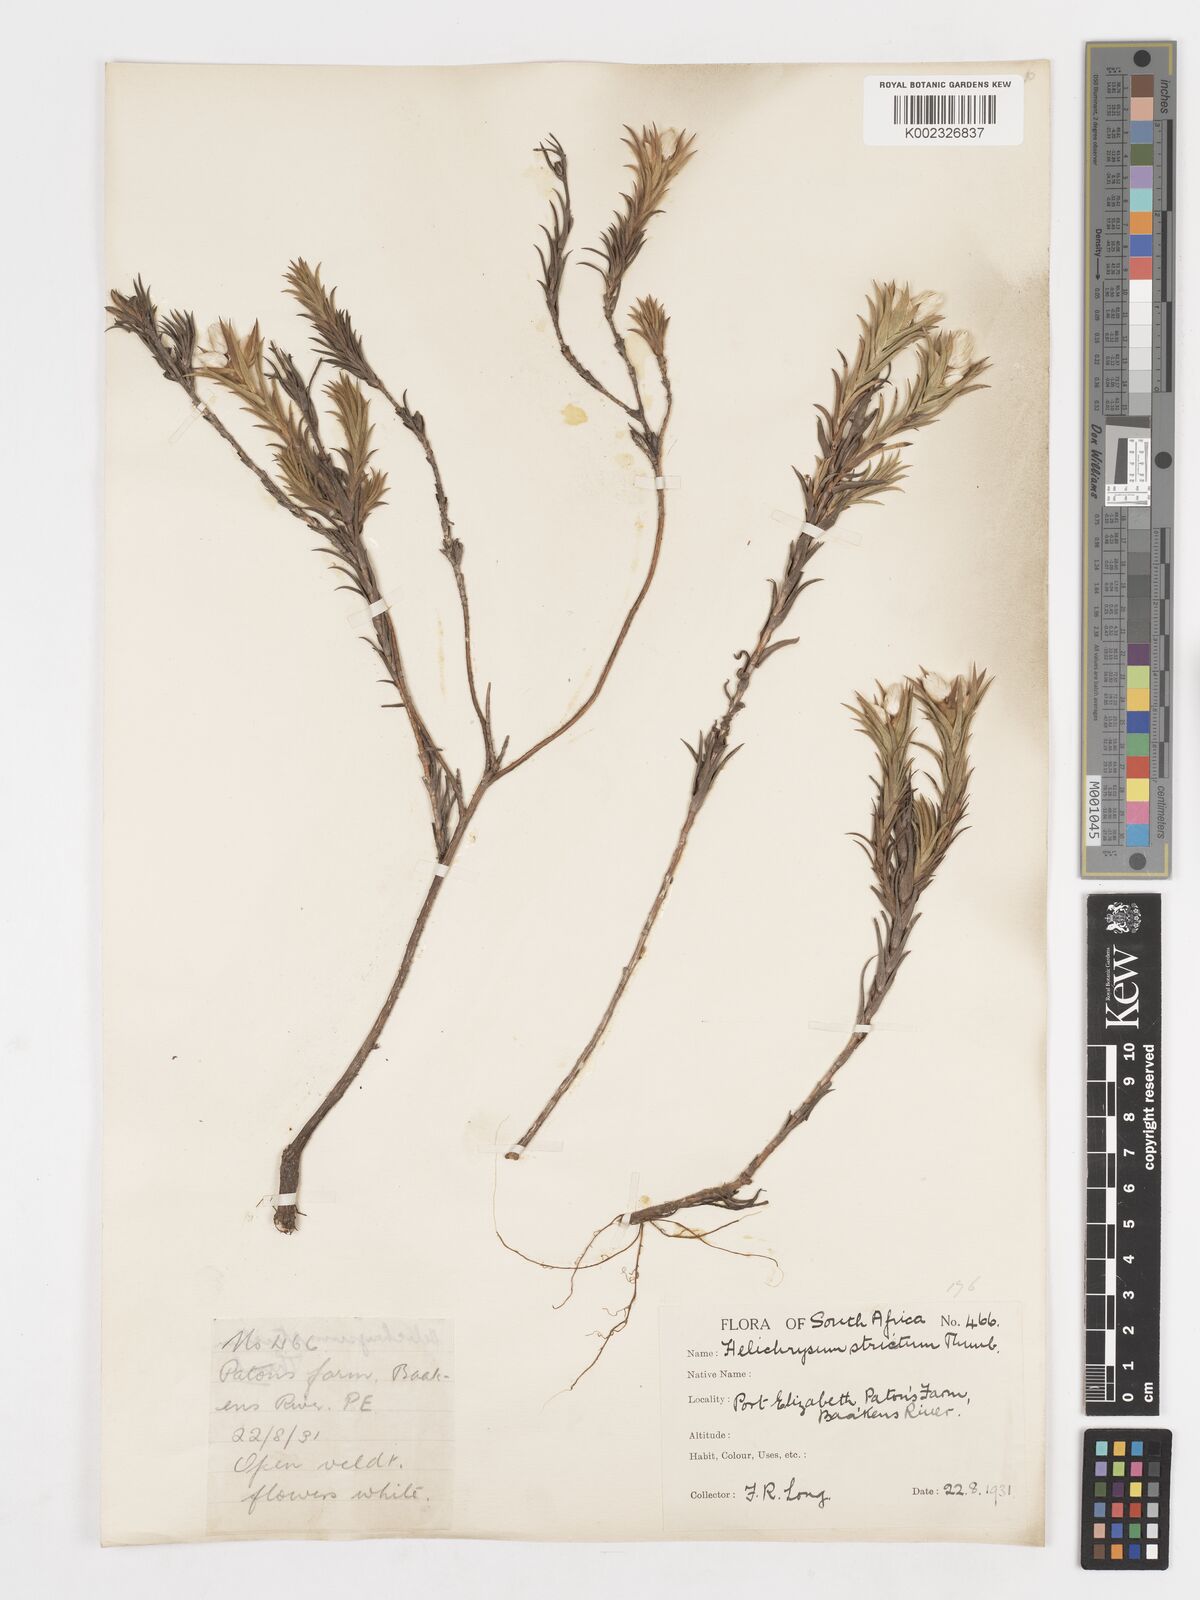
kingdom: Plantae
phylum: Tracheophyta
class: Magnoliopsida
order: Asterales
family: Asteraceae
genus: Achyranthemum
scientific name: Achyranthemum striatum
